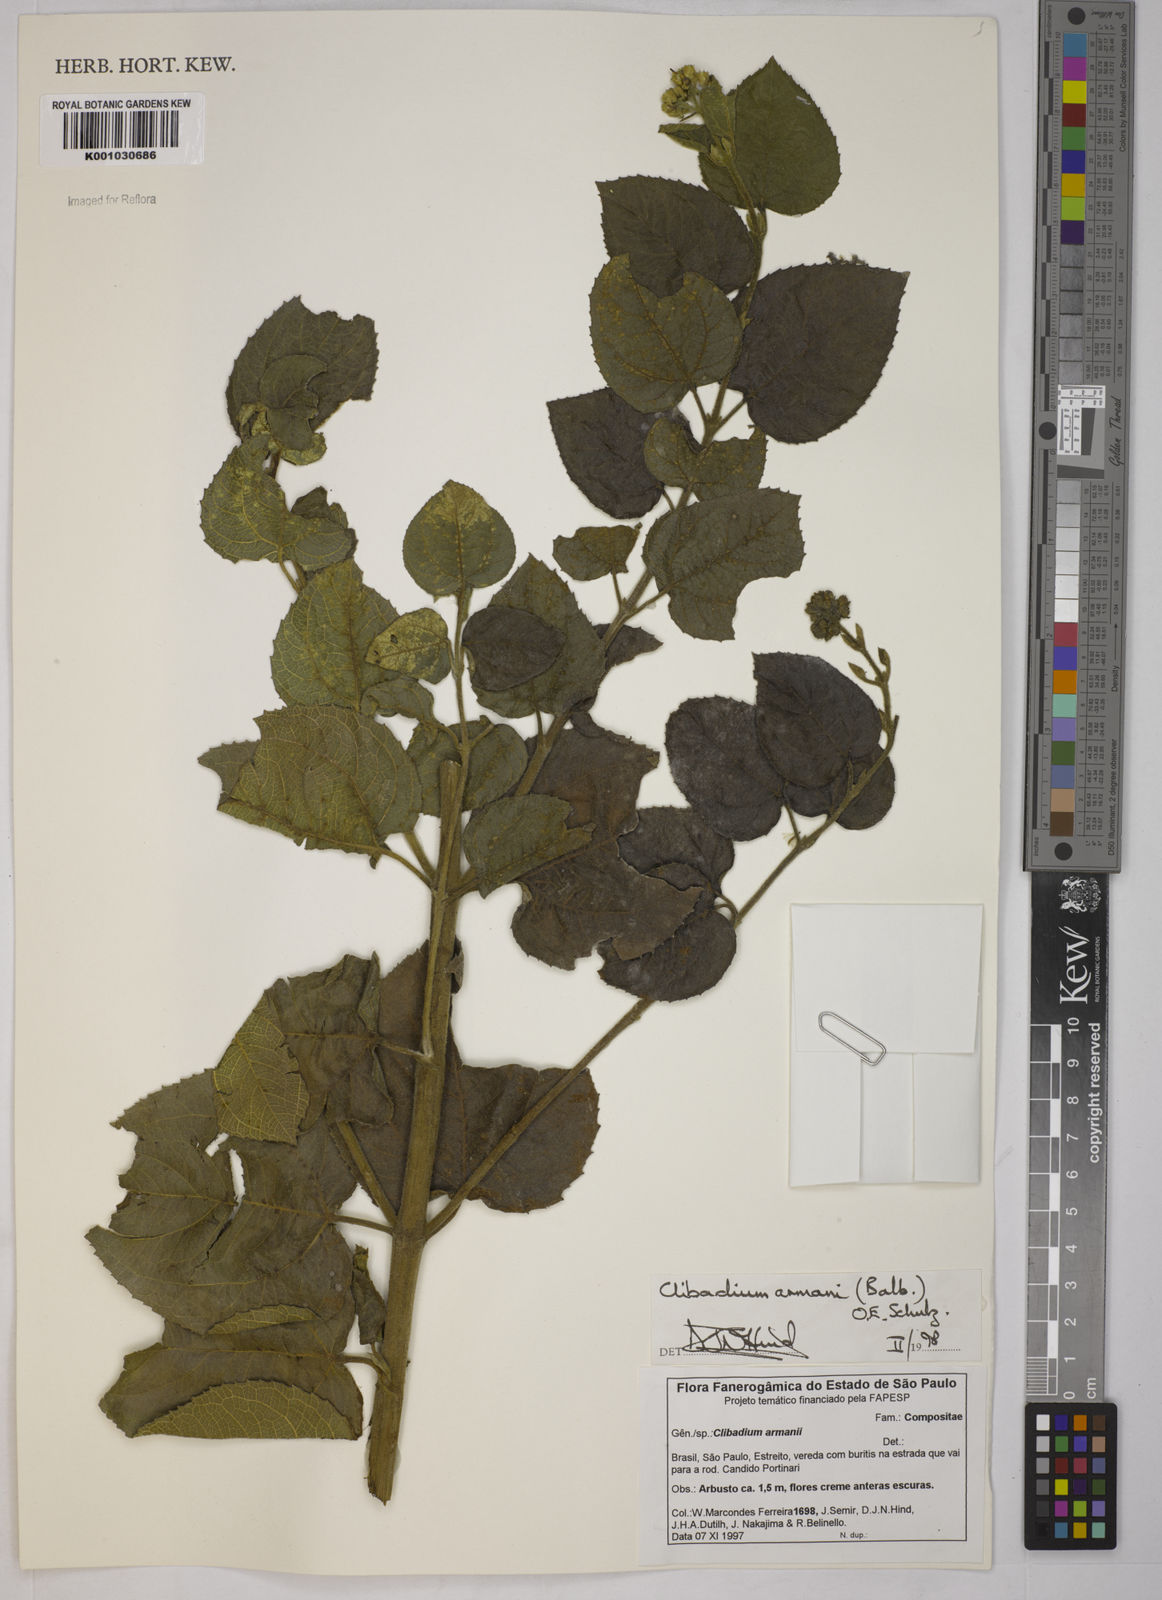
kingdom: Plantae
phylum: Tracheophyta
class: Magnoliopsida
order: Asterales
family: Asteraceae
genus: Clibadium
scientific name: Clibadium armanii
